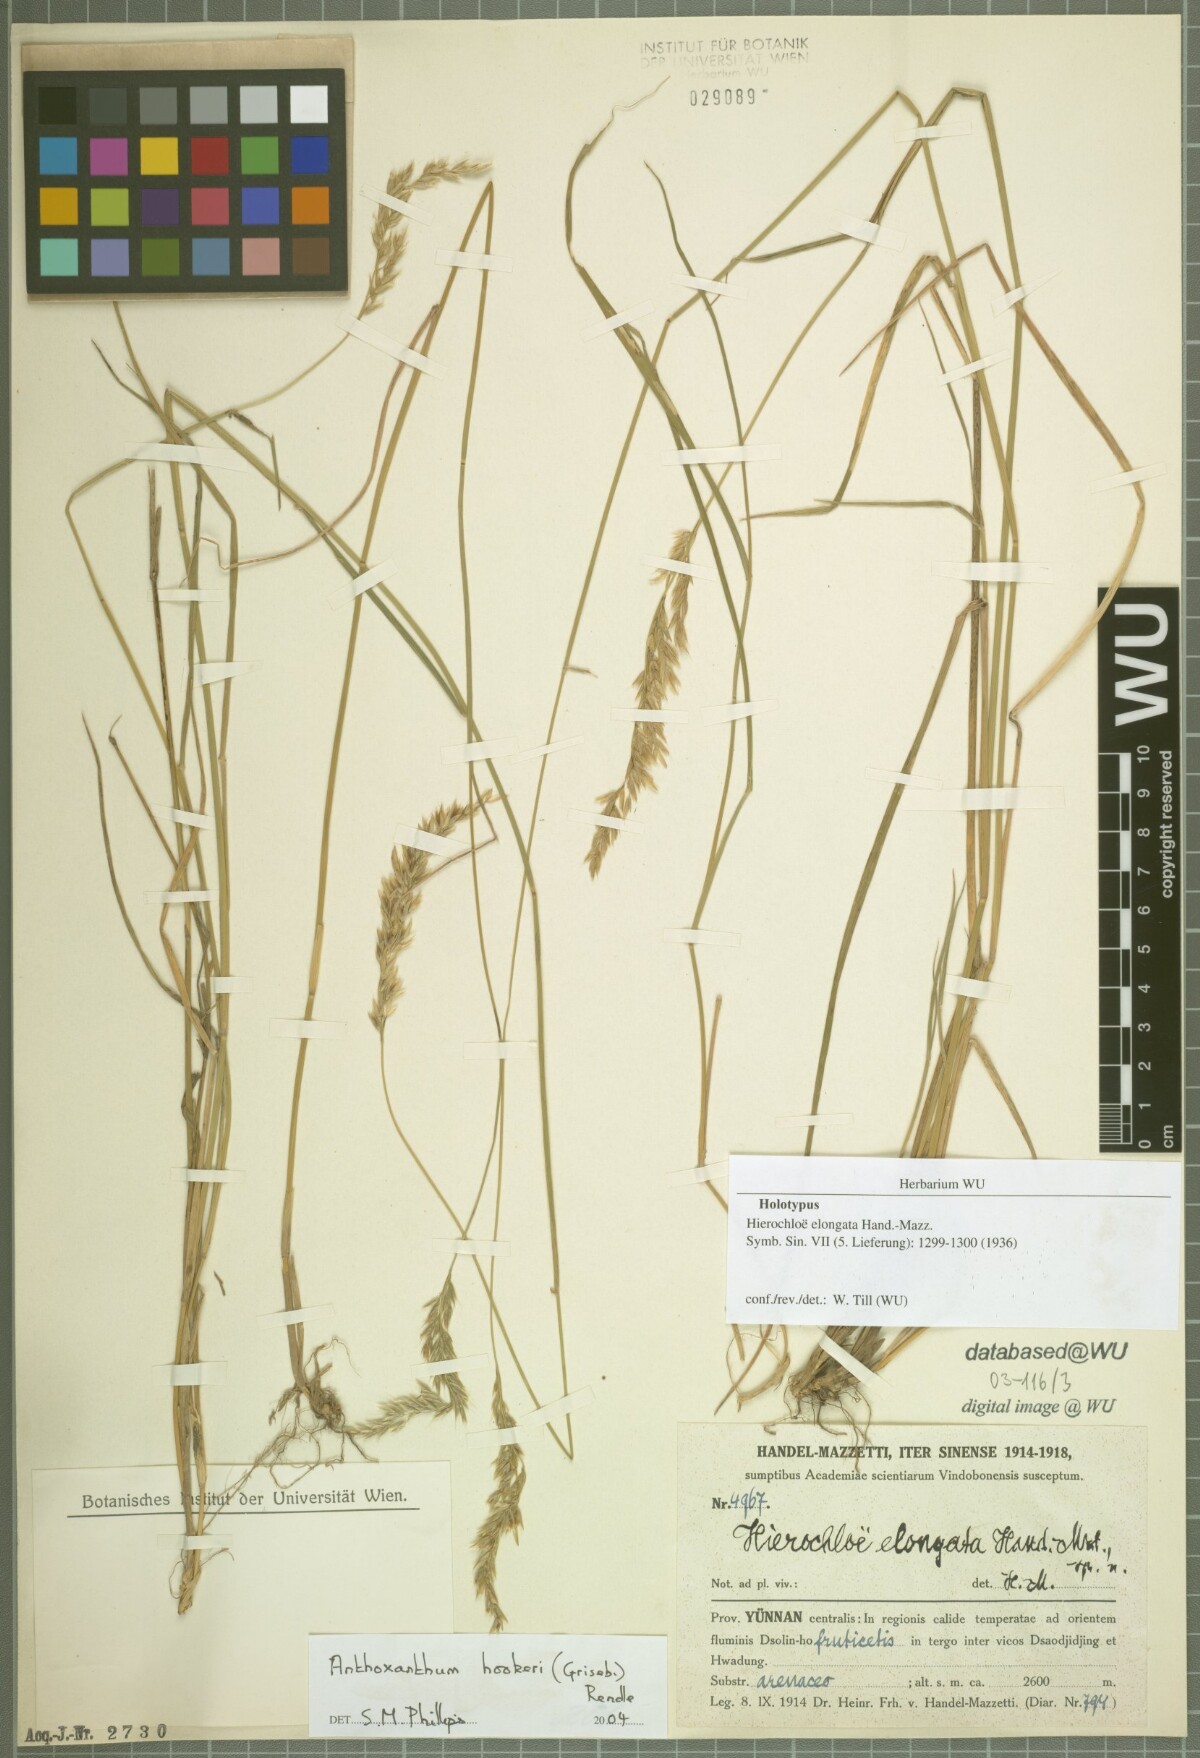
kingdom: Plantae
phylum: Tracheophyta
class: Liliopsida
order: Poales
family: Poaceae
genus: Anthoxanthum
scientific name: Anthoxanthum hookeri
